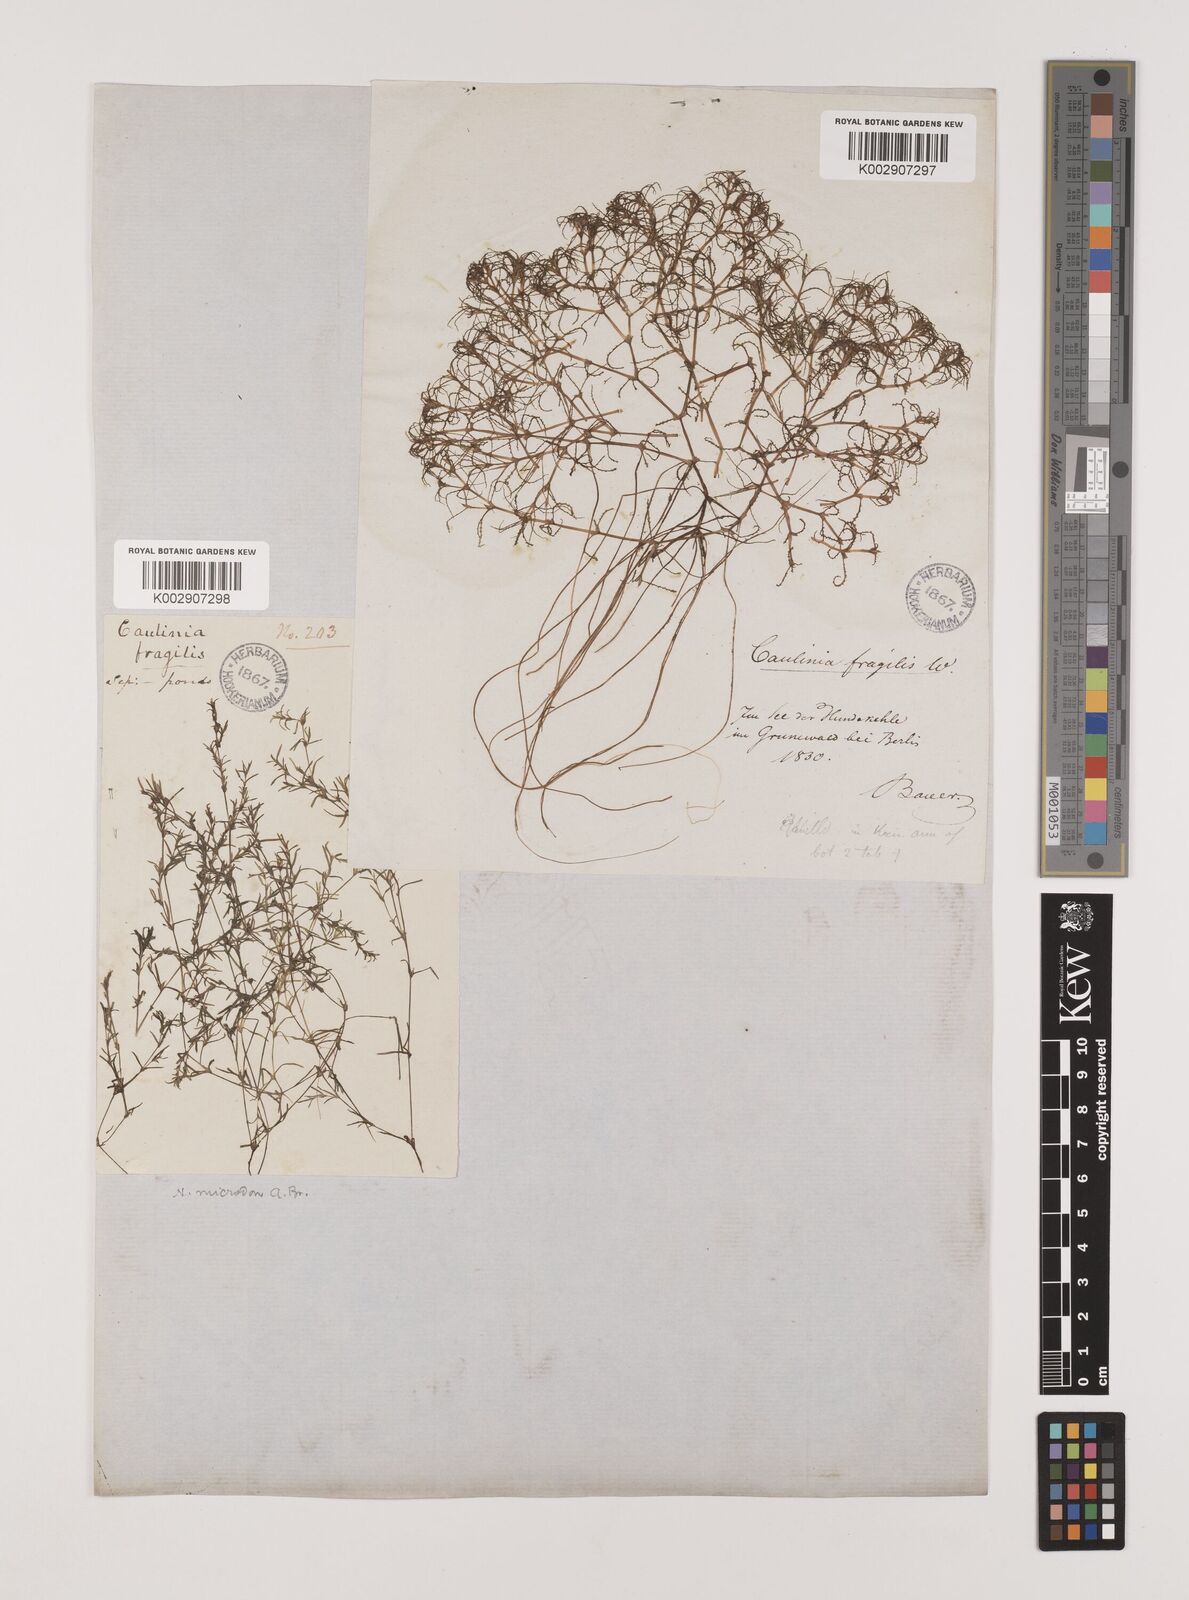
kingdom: Plantae
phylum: Tracheophyta
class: Liliopsida
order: Alismatales
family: Hydrocharitaceae
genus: Najas
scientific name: Najas minor
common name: Brittle naiad
